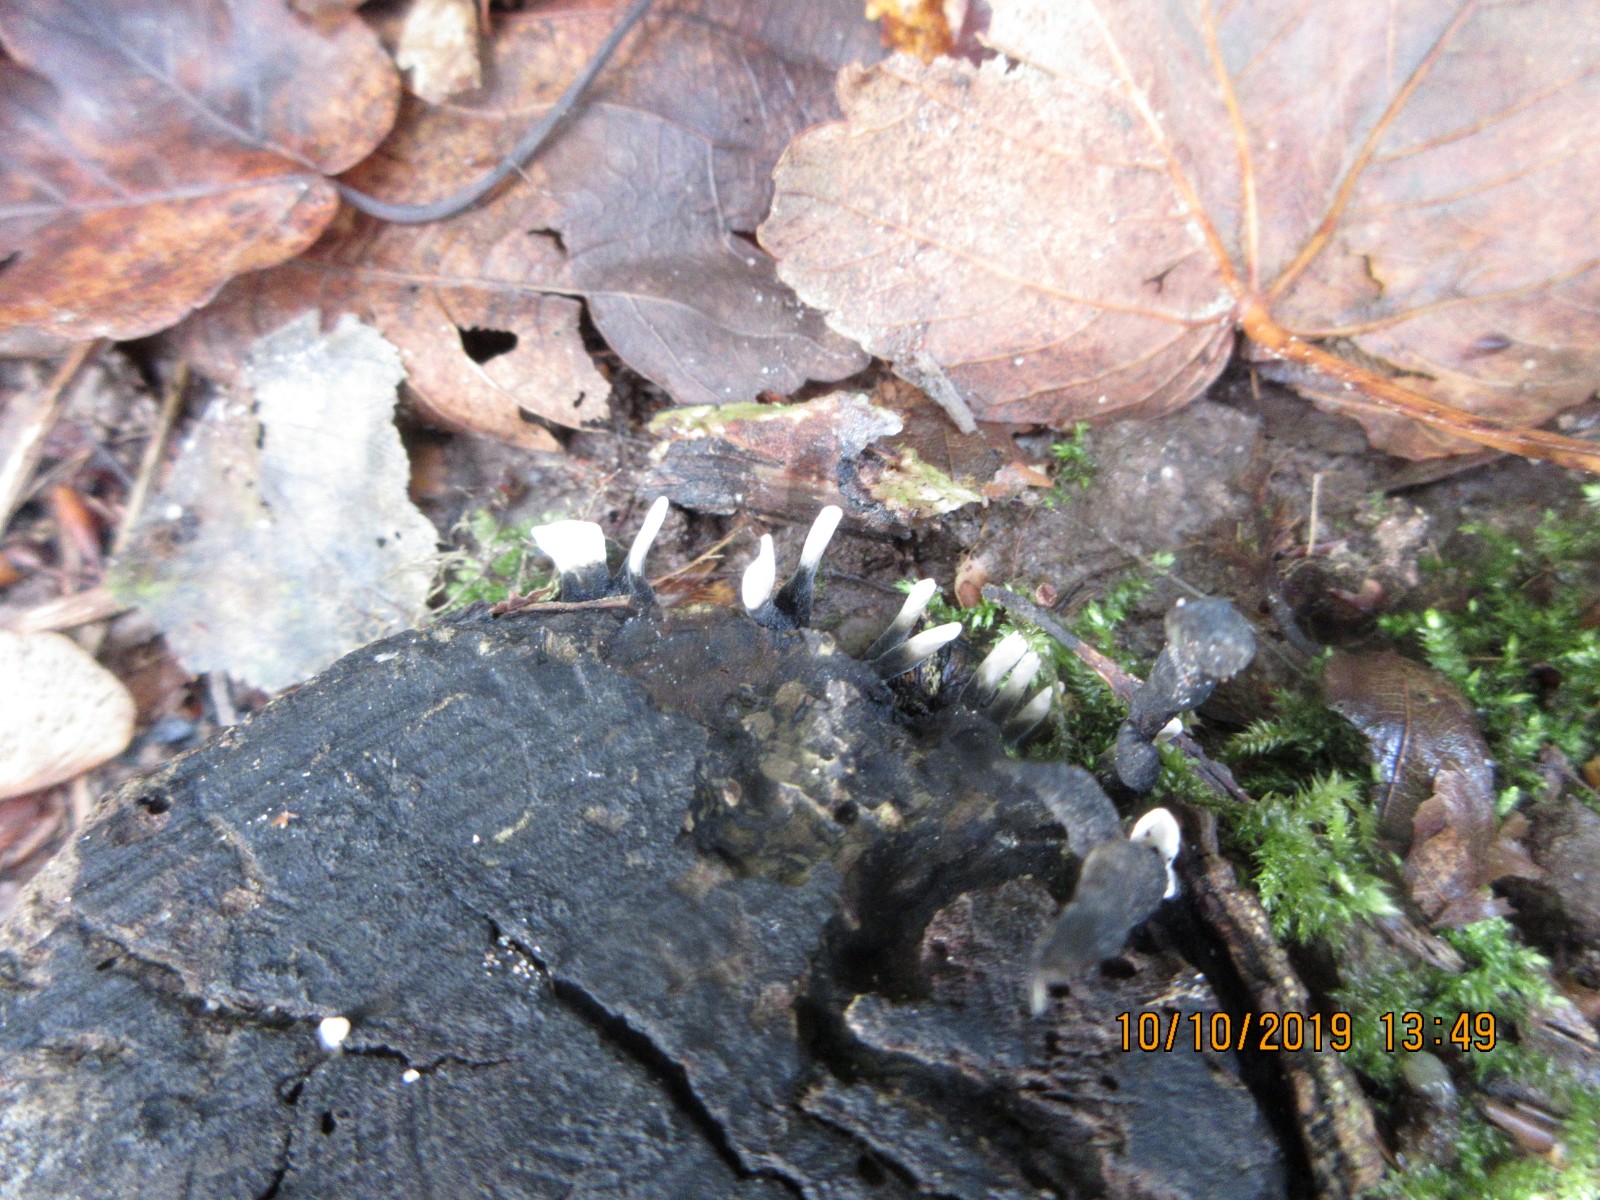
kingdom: Fungi
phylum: Ascomycota
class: Sordariomycetes
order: Xylariales
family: Xylariaceae
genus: Xylaria
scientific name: Xylaria hypoxylon
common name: grenet stødsvamp
